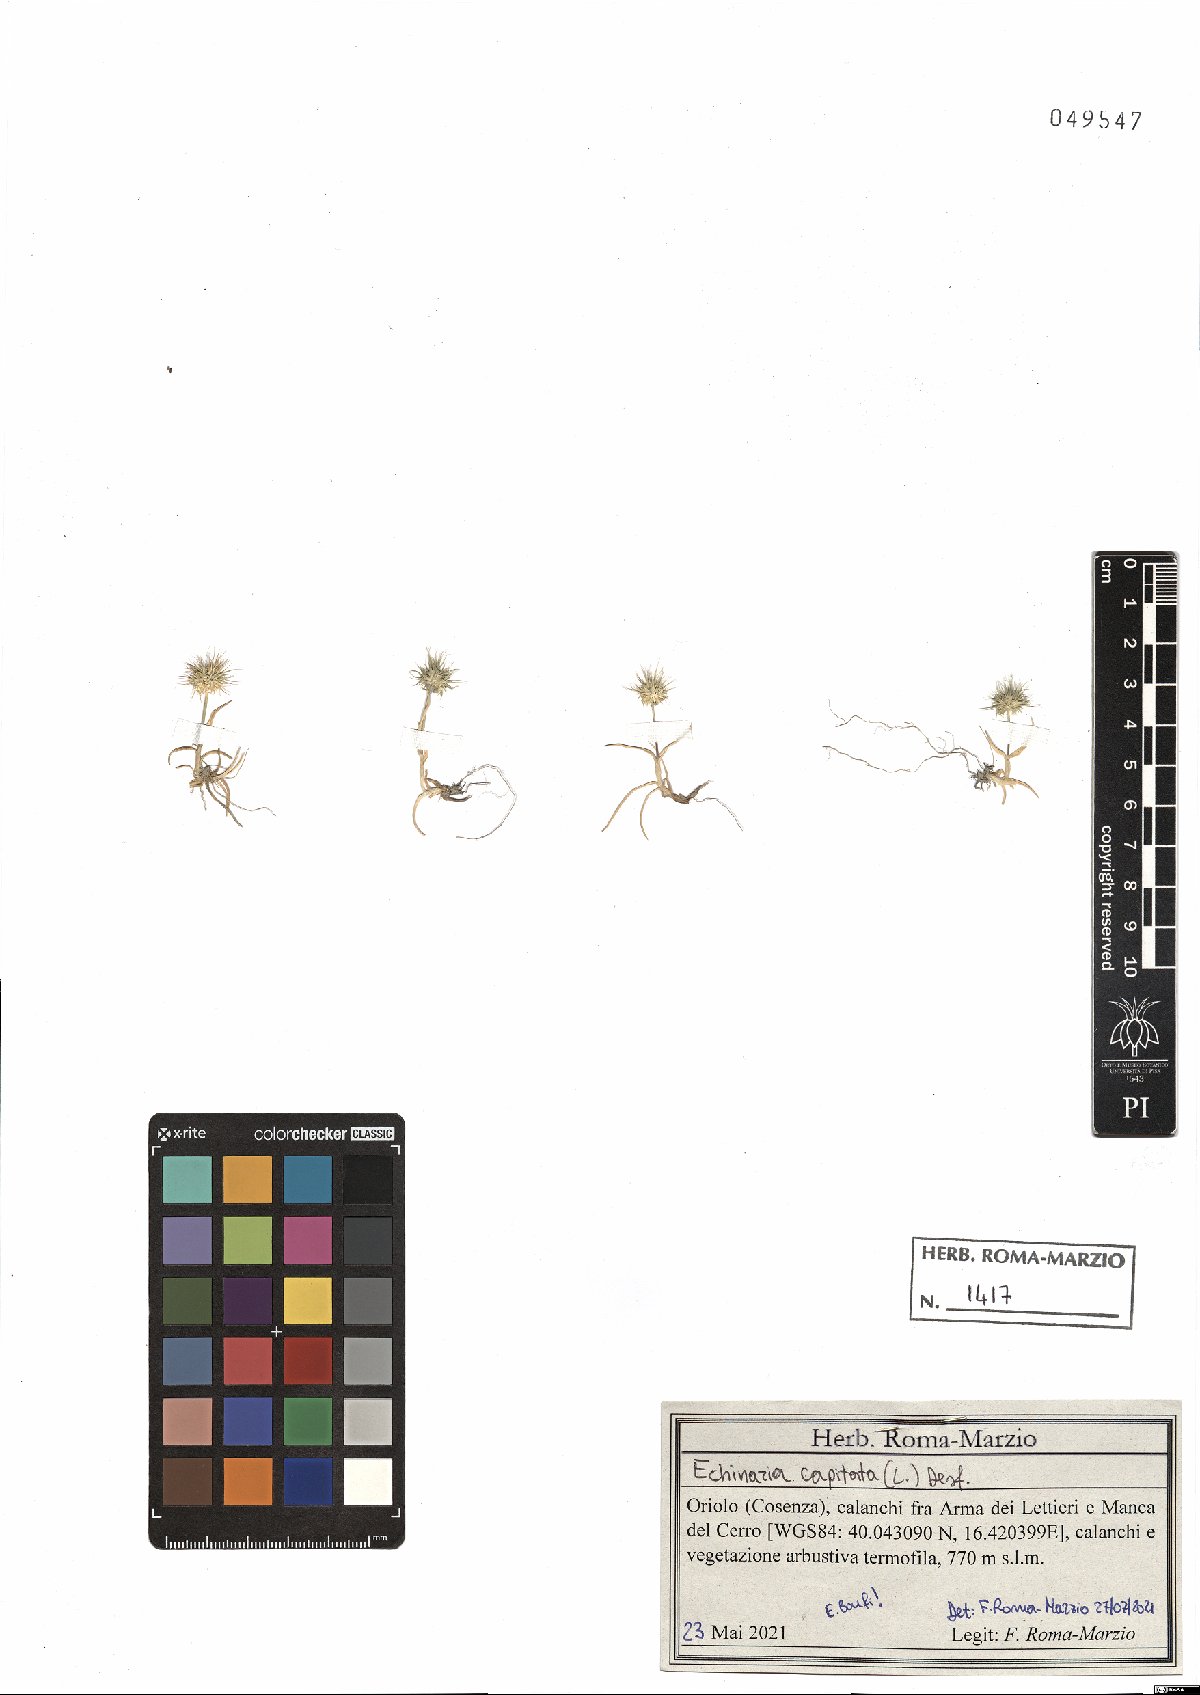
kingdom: Plantae
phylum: Tracheophyta
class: Liliopsida
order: Poales
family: Poaceae
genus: Echinaria
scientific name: Echinaria capitata
